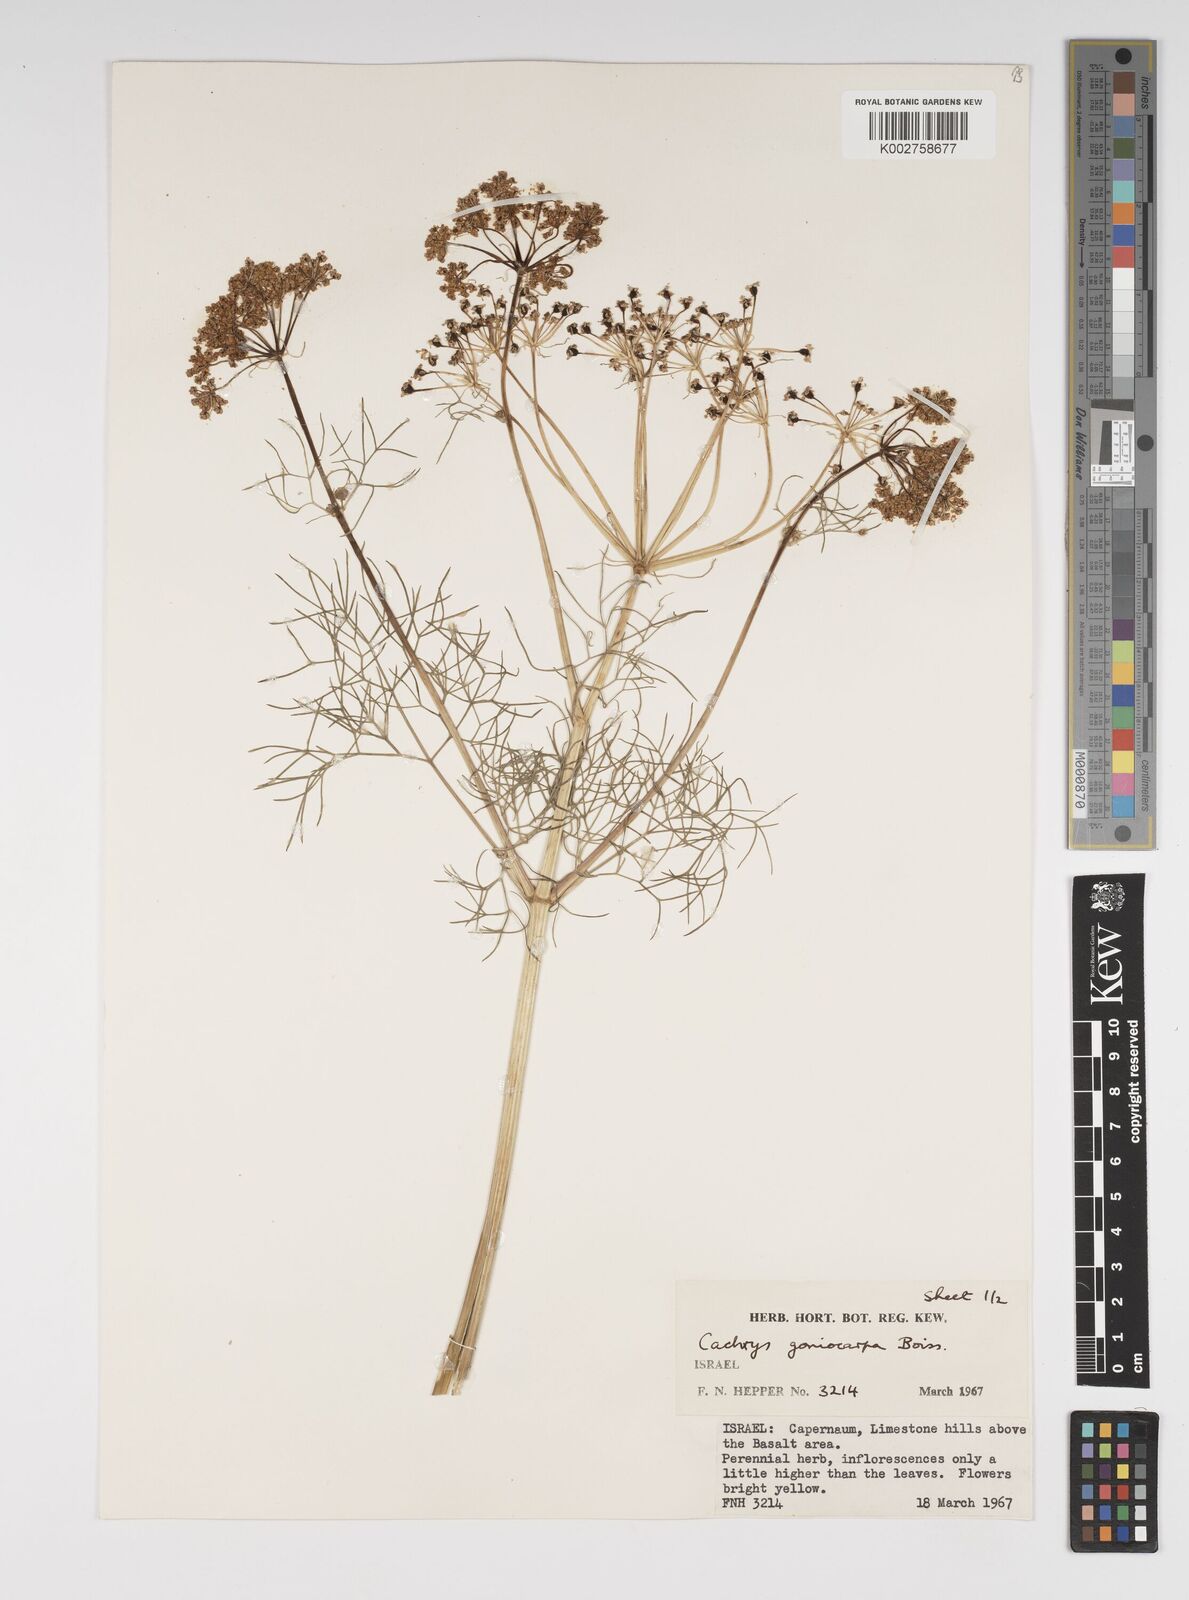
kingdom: Plantae
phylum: Tracheophyta
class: Magnoliopsida
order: Apiales
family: Apiaceae
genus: Prangos
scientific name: Prangos ferulacea
